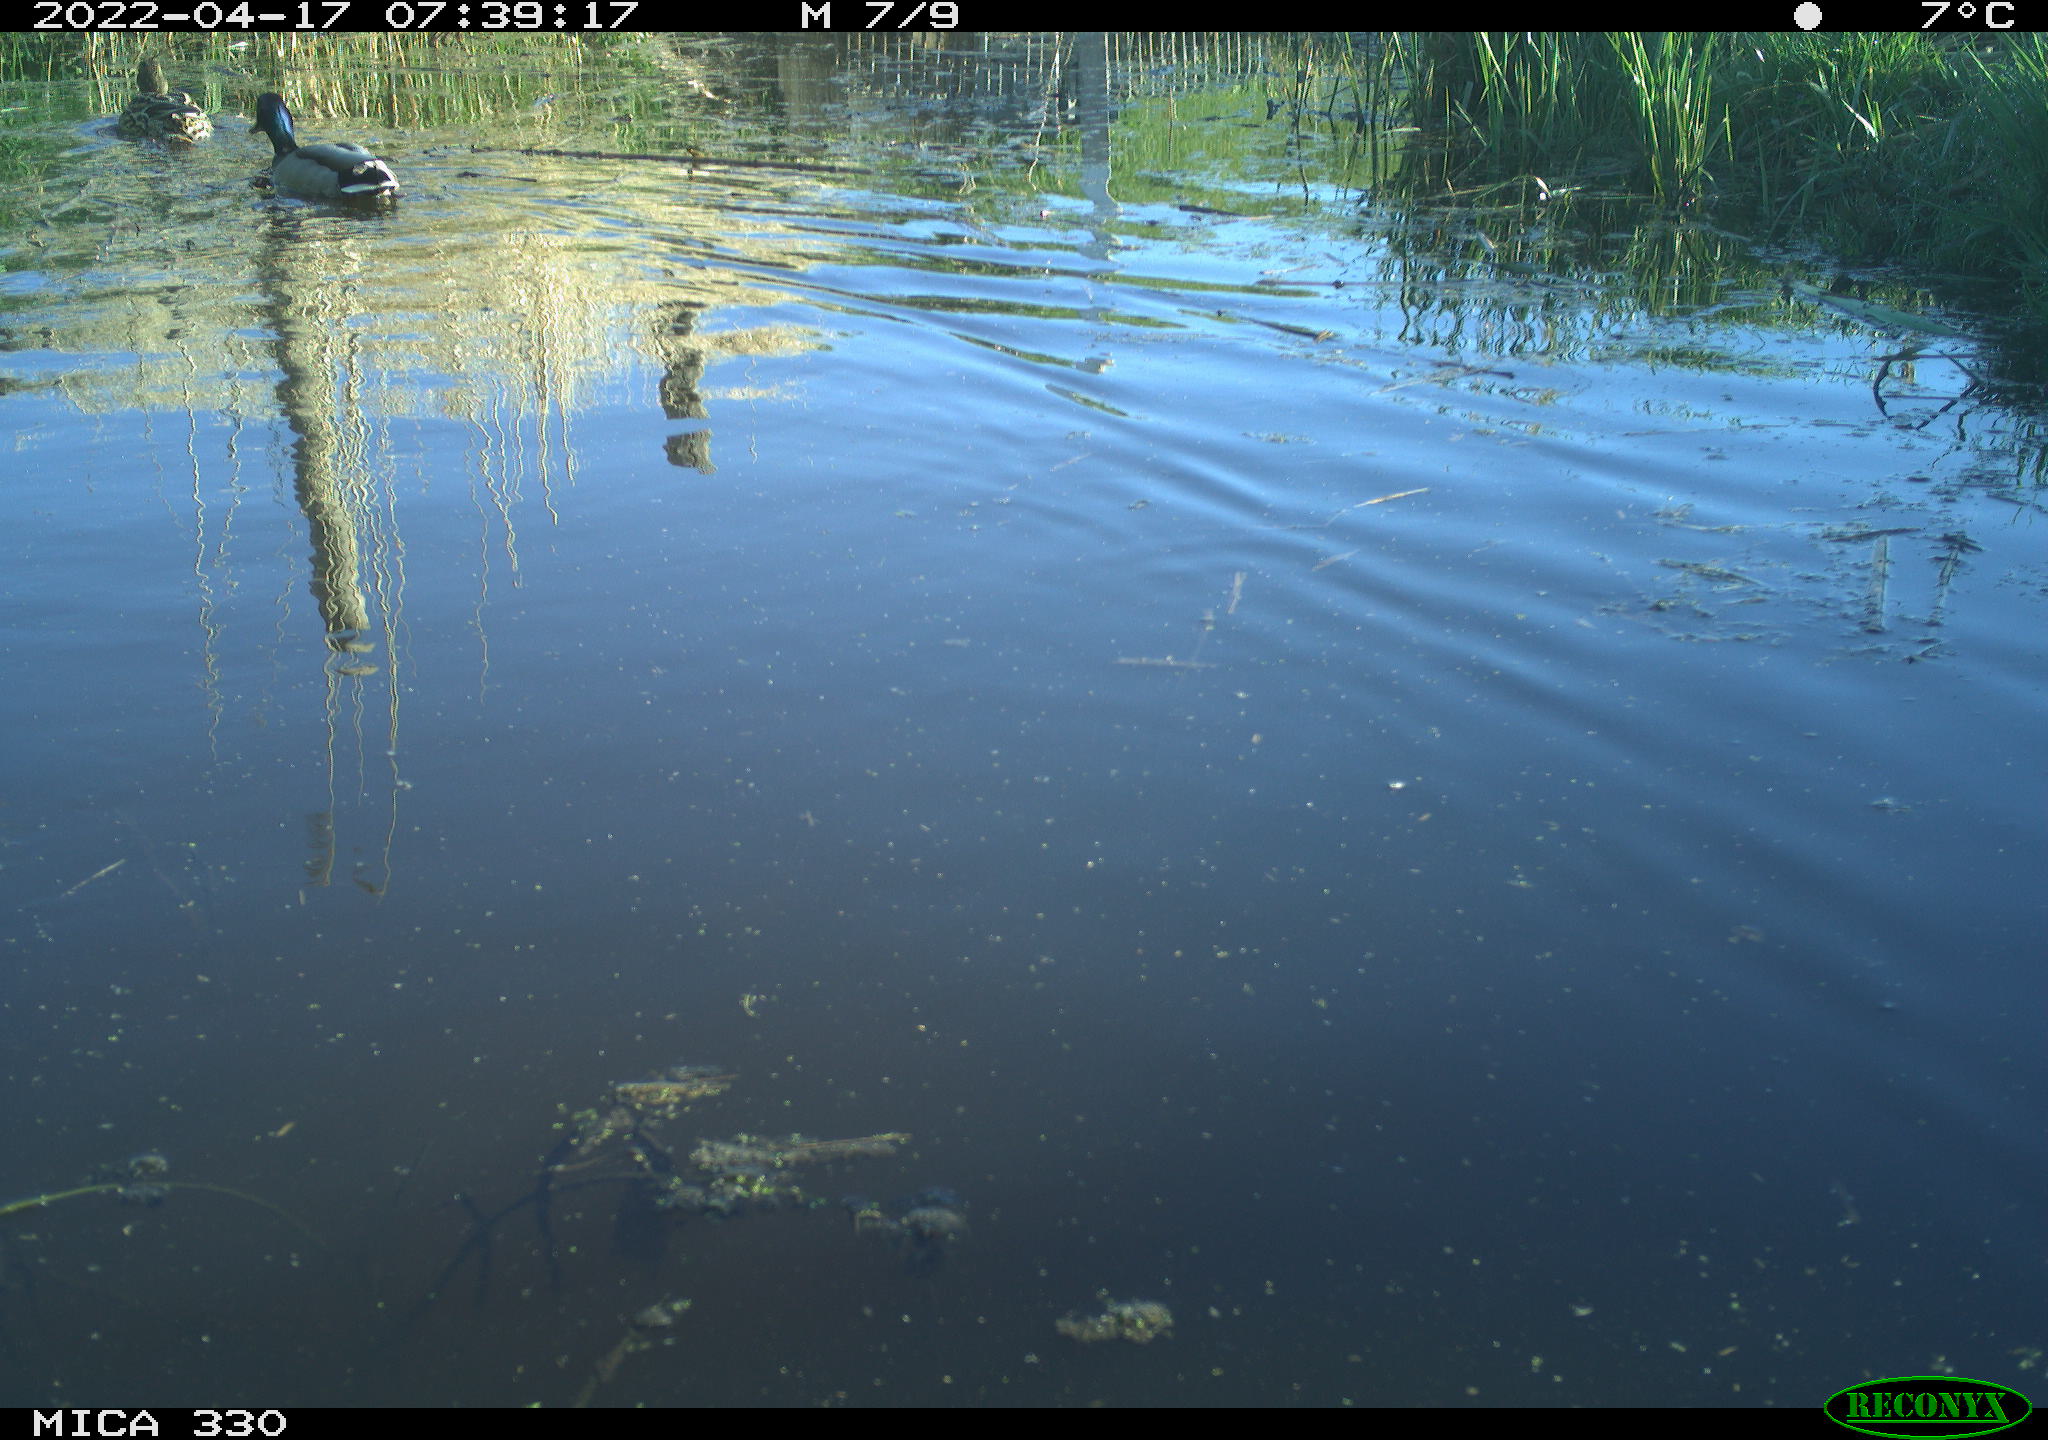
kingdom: Animalia
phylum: Chordata
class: Aves
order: Anseriformes
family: Anatidae
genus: Anas
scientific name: Anas platyrhynchos
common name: Mallard
